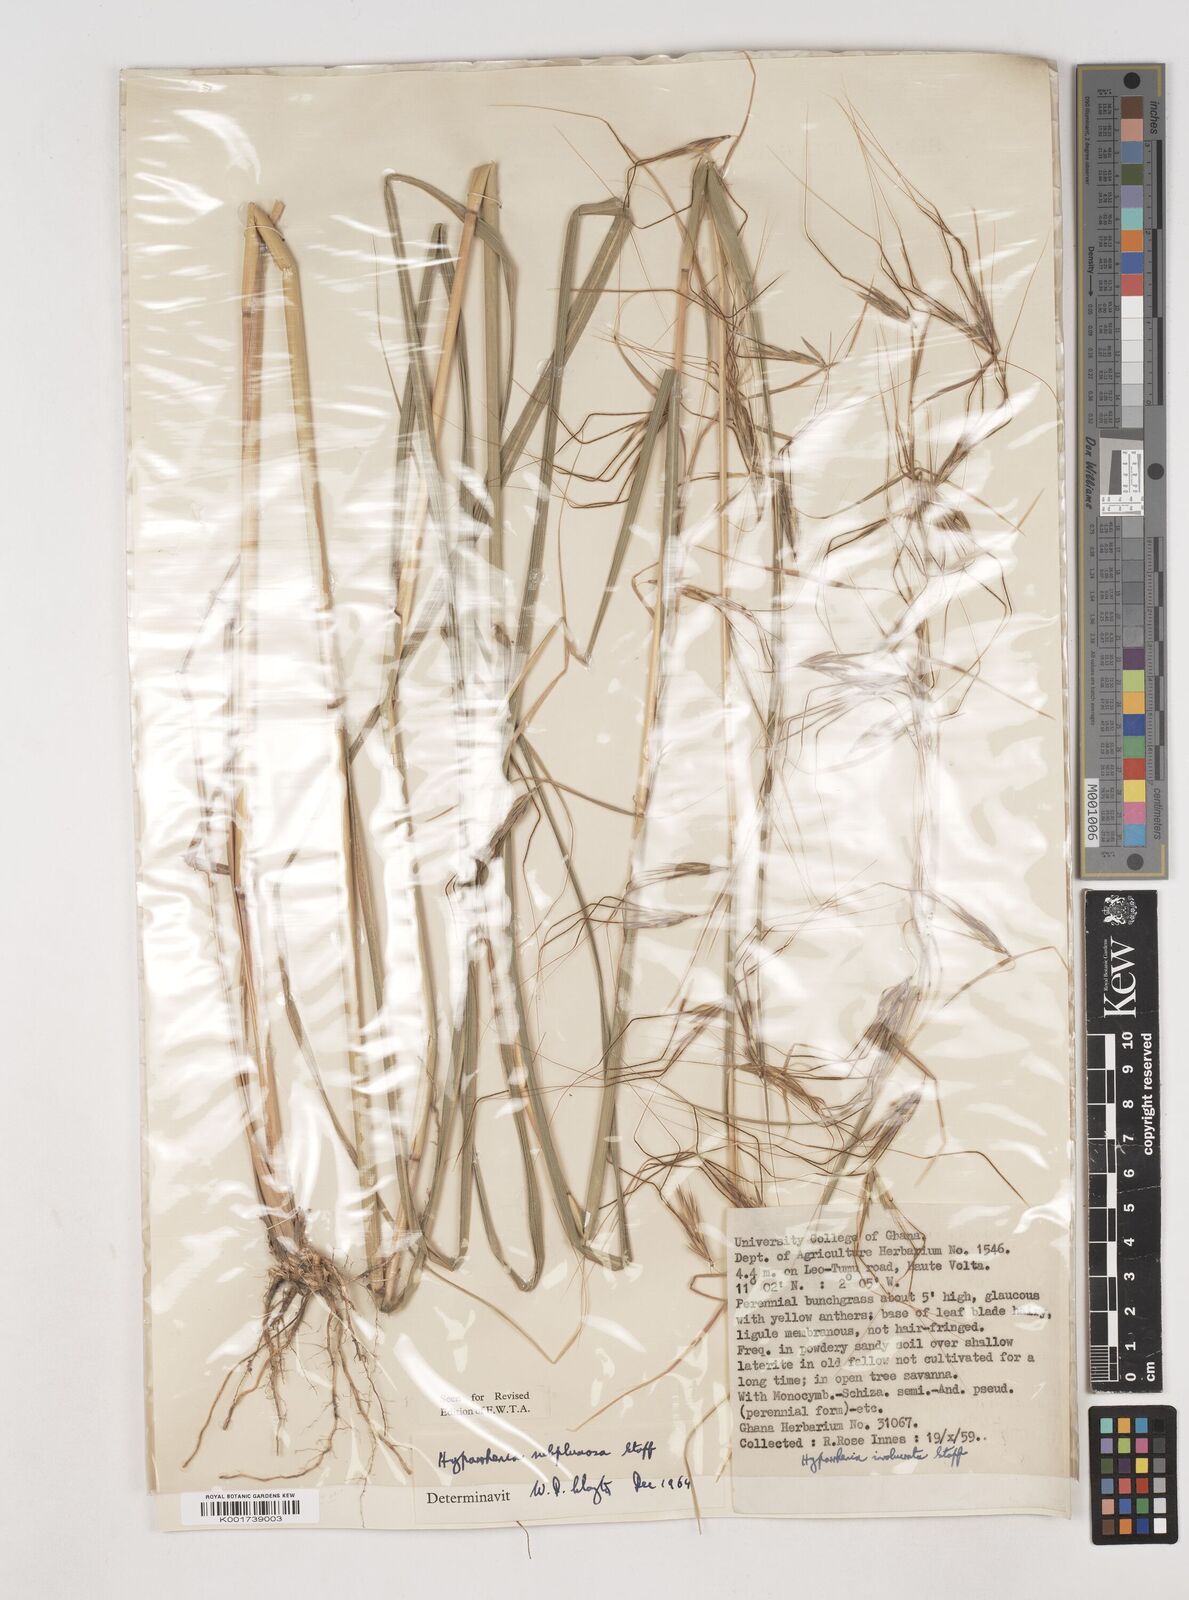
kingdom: Plantae
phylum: Tracheophyta
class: Liliopsida
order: Poales
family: Poaceae
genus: Hyparrhenia
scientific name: Hyparrhenia
